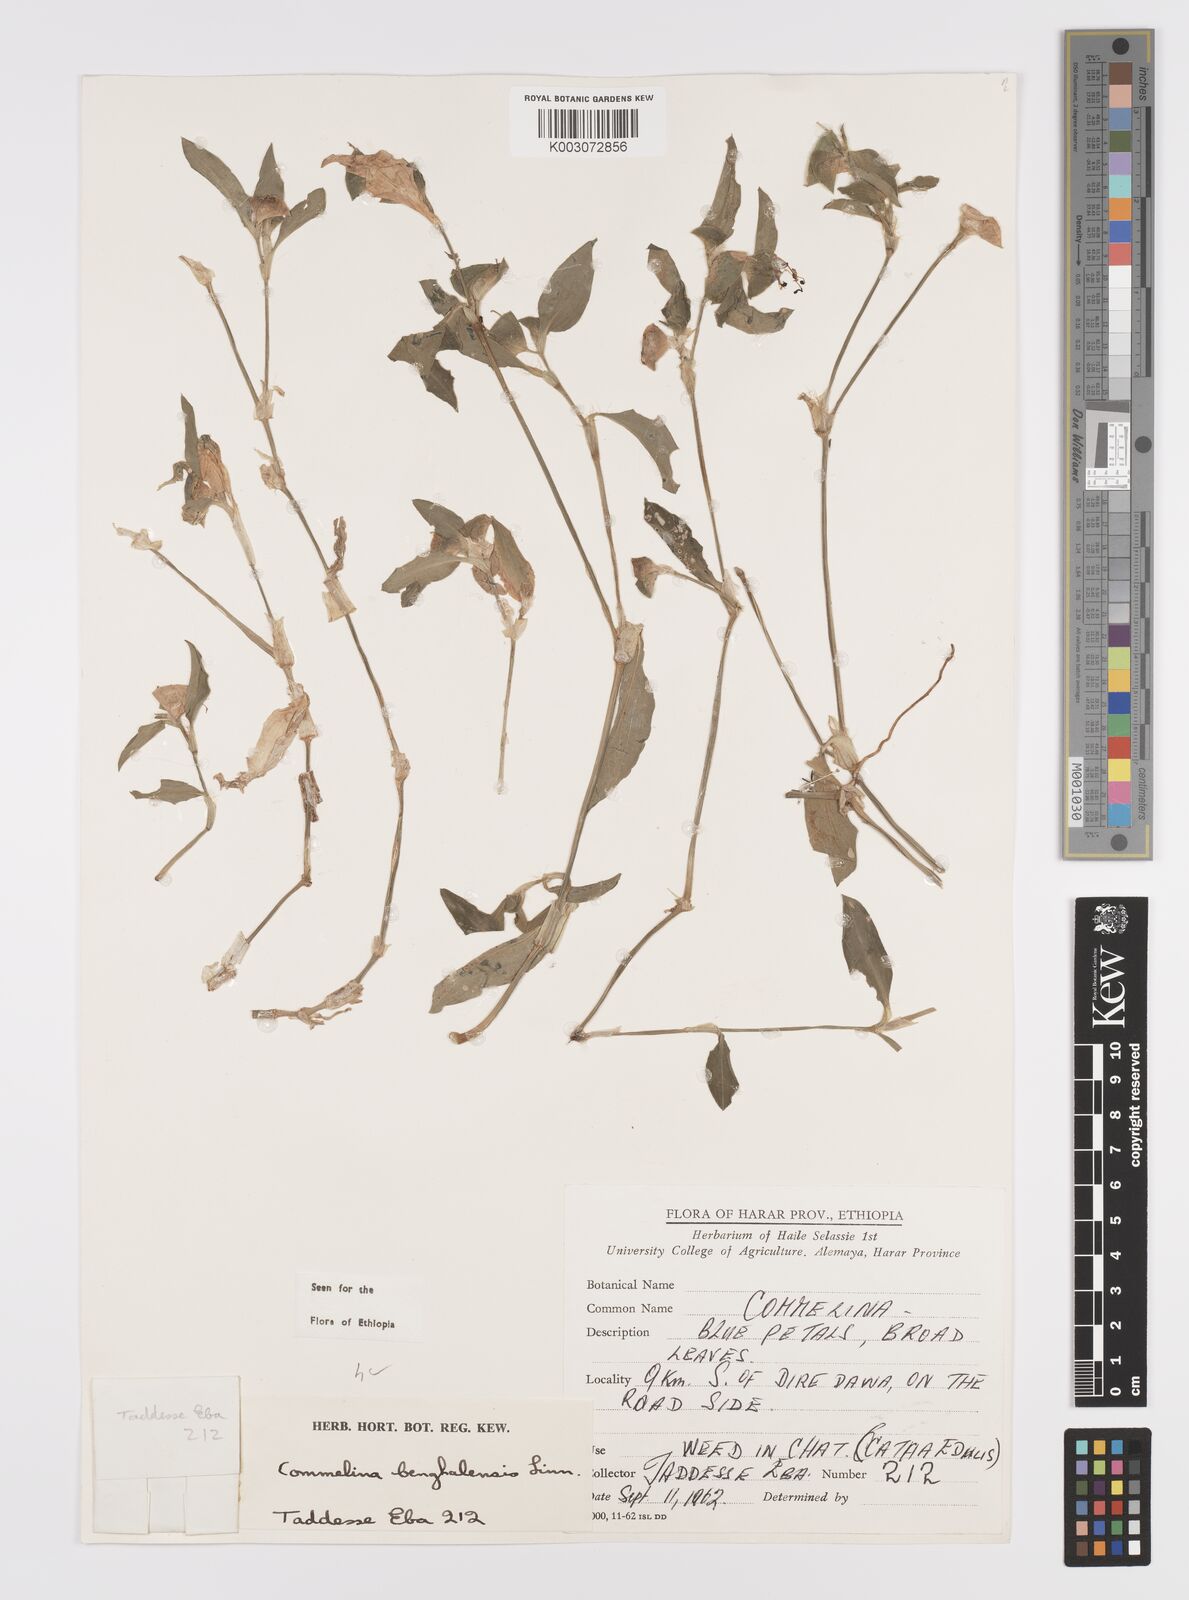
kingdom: Plantae
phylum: Tracheophyta
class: Liliopsida
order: Commelinales
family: Commelinaceae
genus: Commelina
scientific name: Commelina benghalensis
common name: Jio
